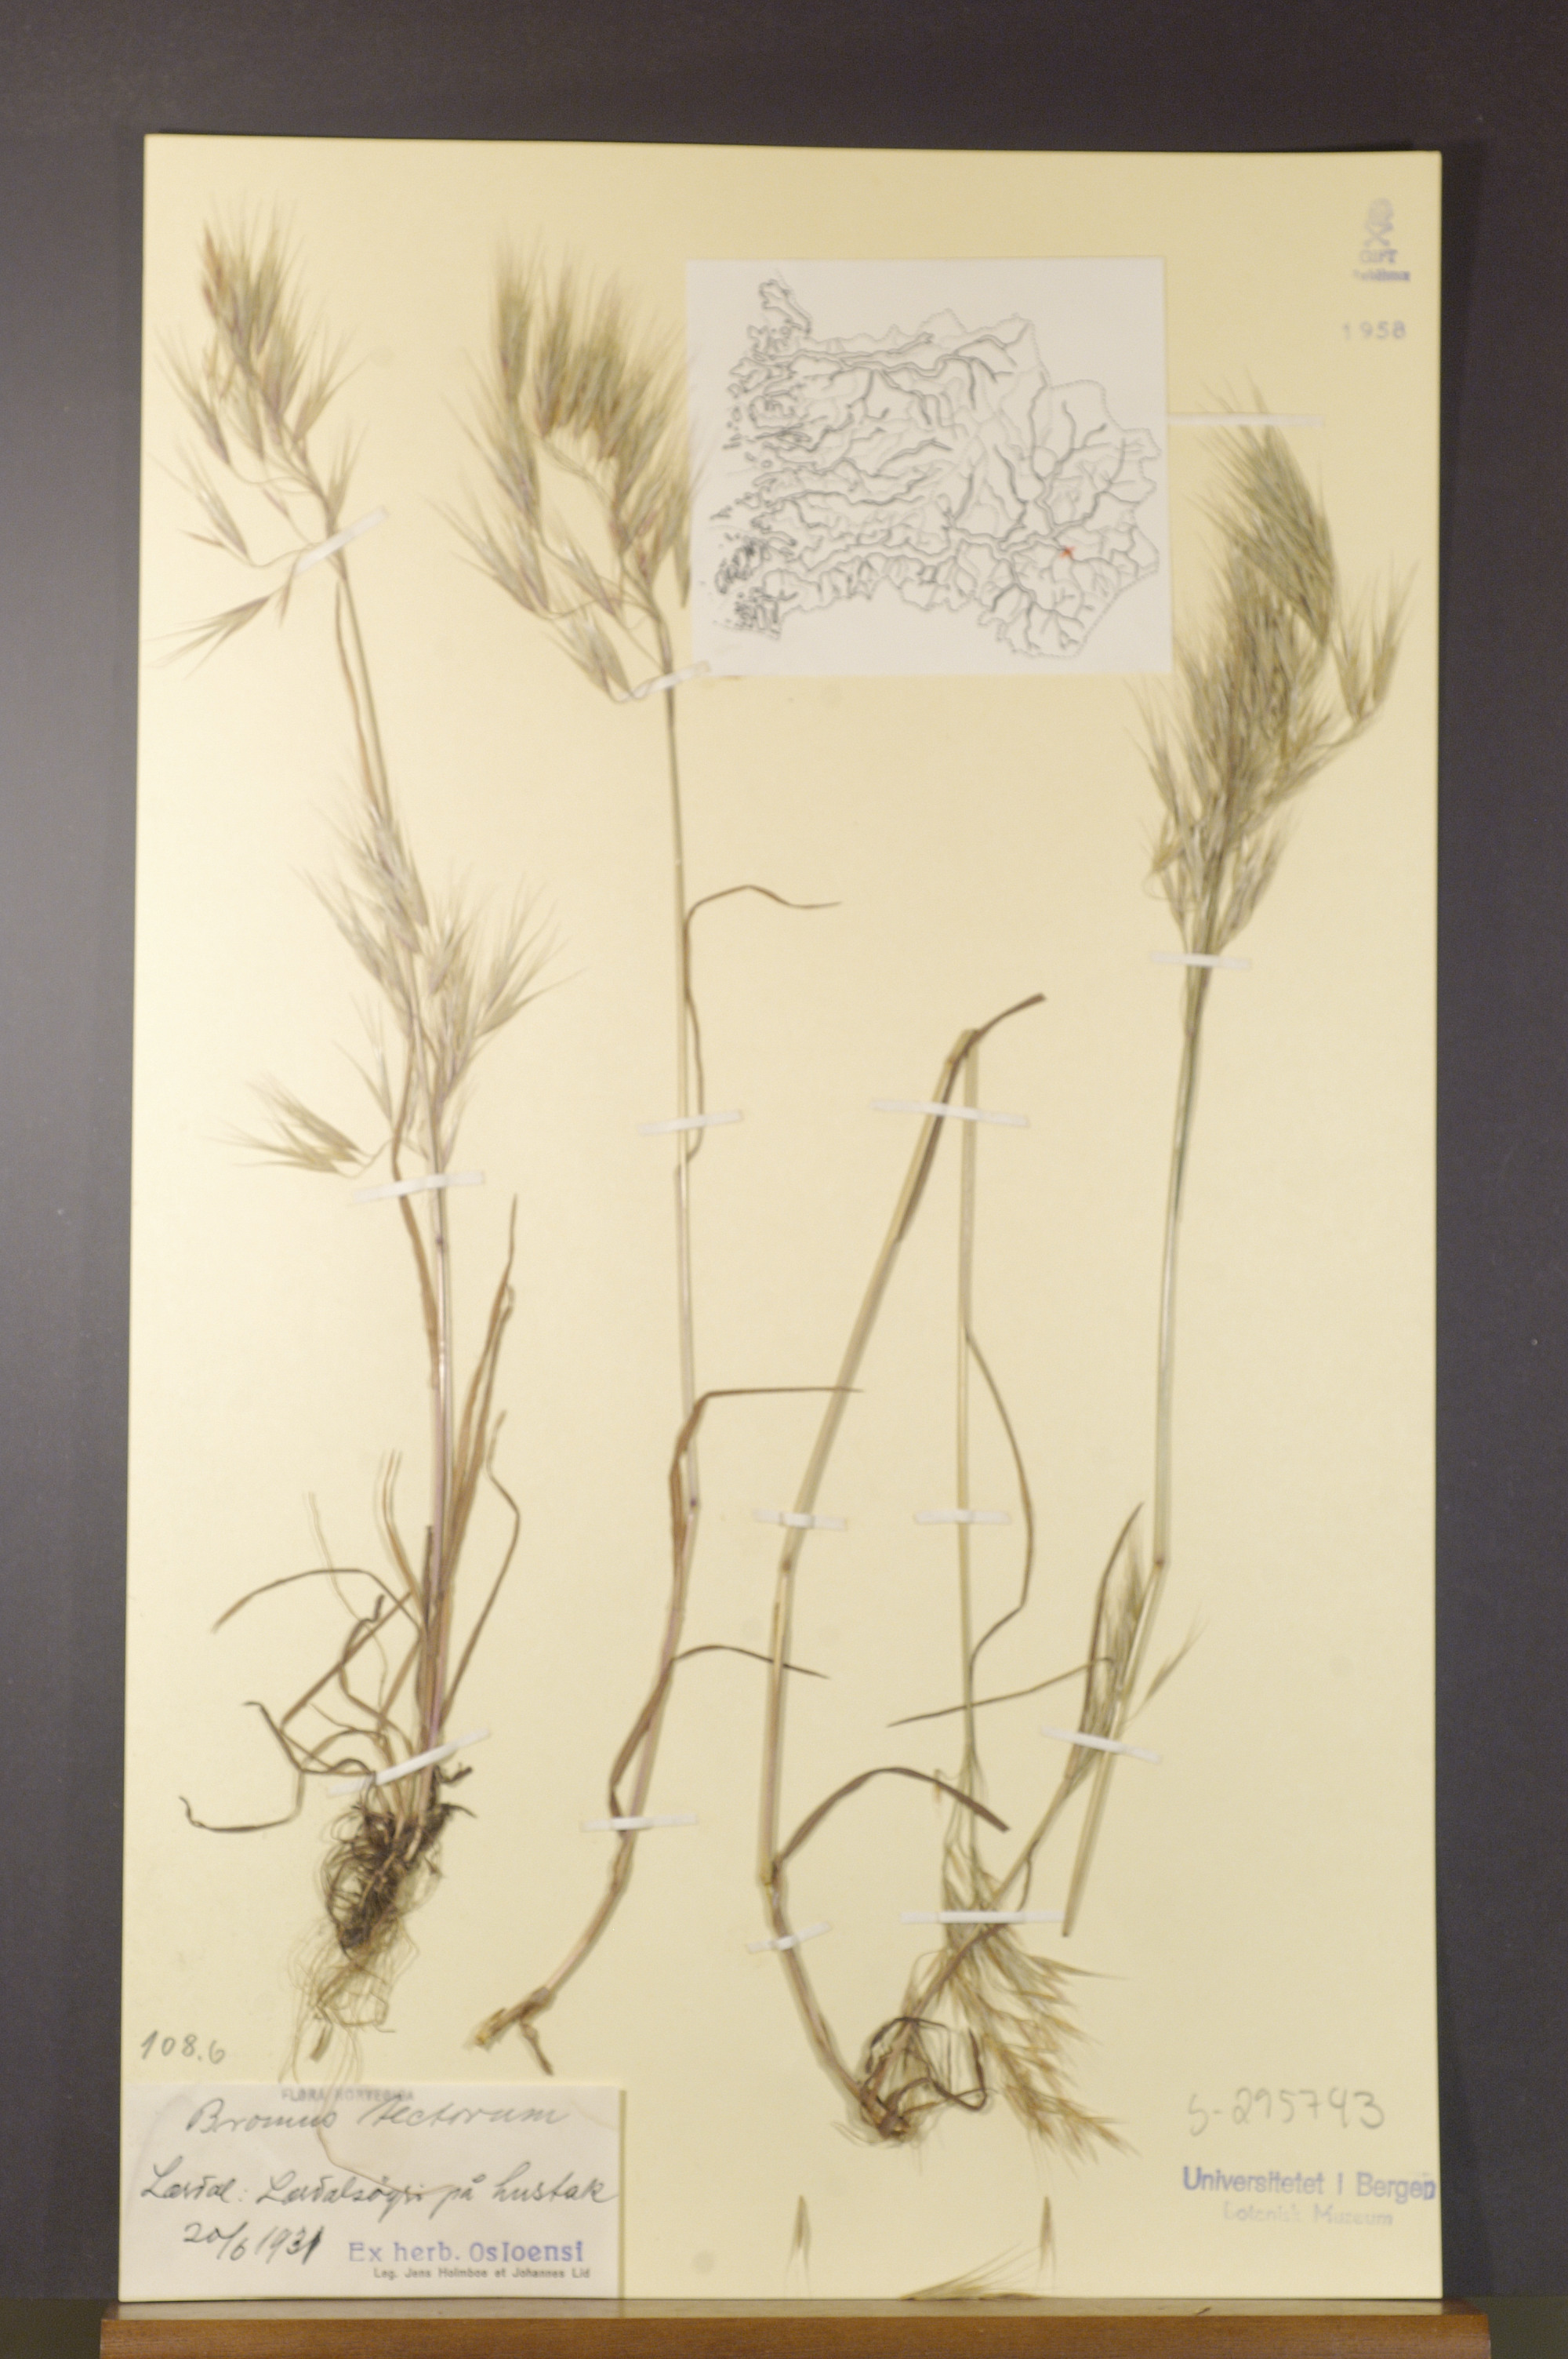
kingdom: Plantae
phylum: Tracheophyta
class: Liliopsida
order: Poales
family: Poaceae
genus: Bromus
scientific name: Bromus tectorum
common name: Cheatgrass
